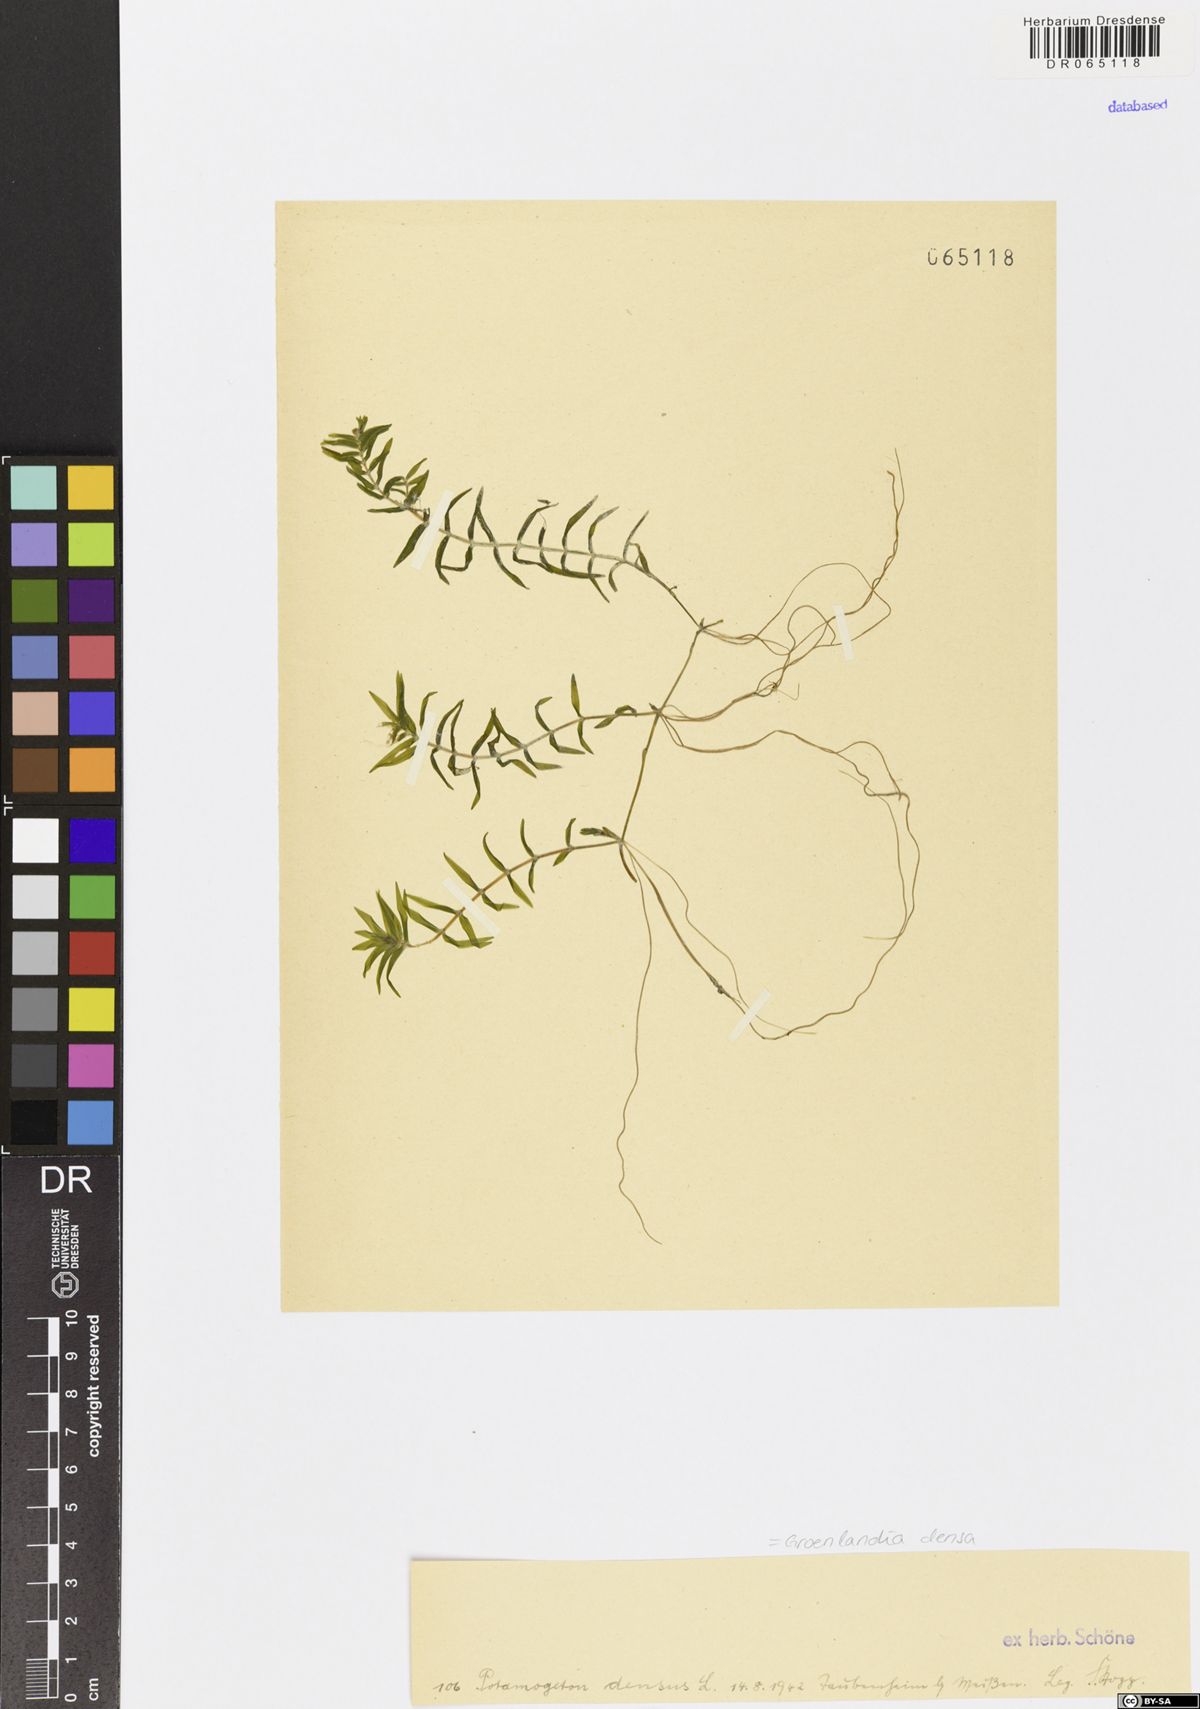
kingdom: Plantae
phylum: Tracheophyta
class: Liliopsida
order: Alismatales
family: Potamogetonaceae
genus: Groenlandia
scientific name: Groenlandia densa
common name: Opposite-leaved pondweed
